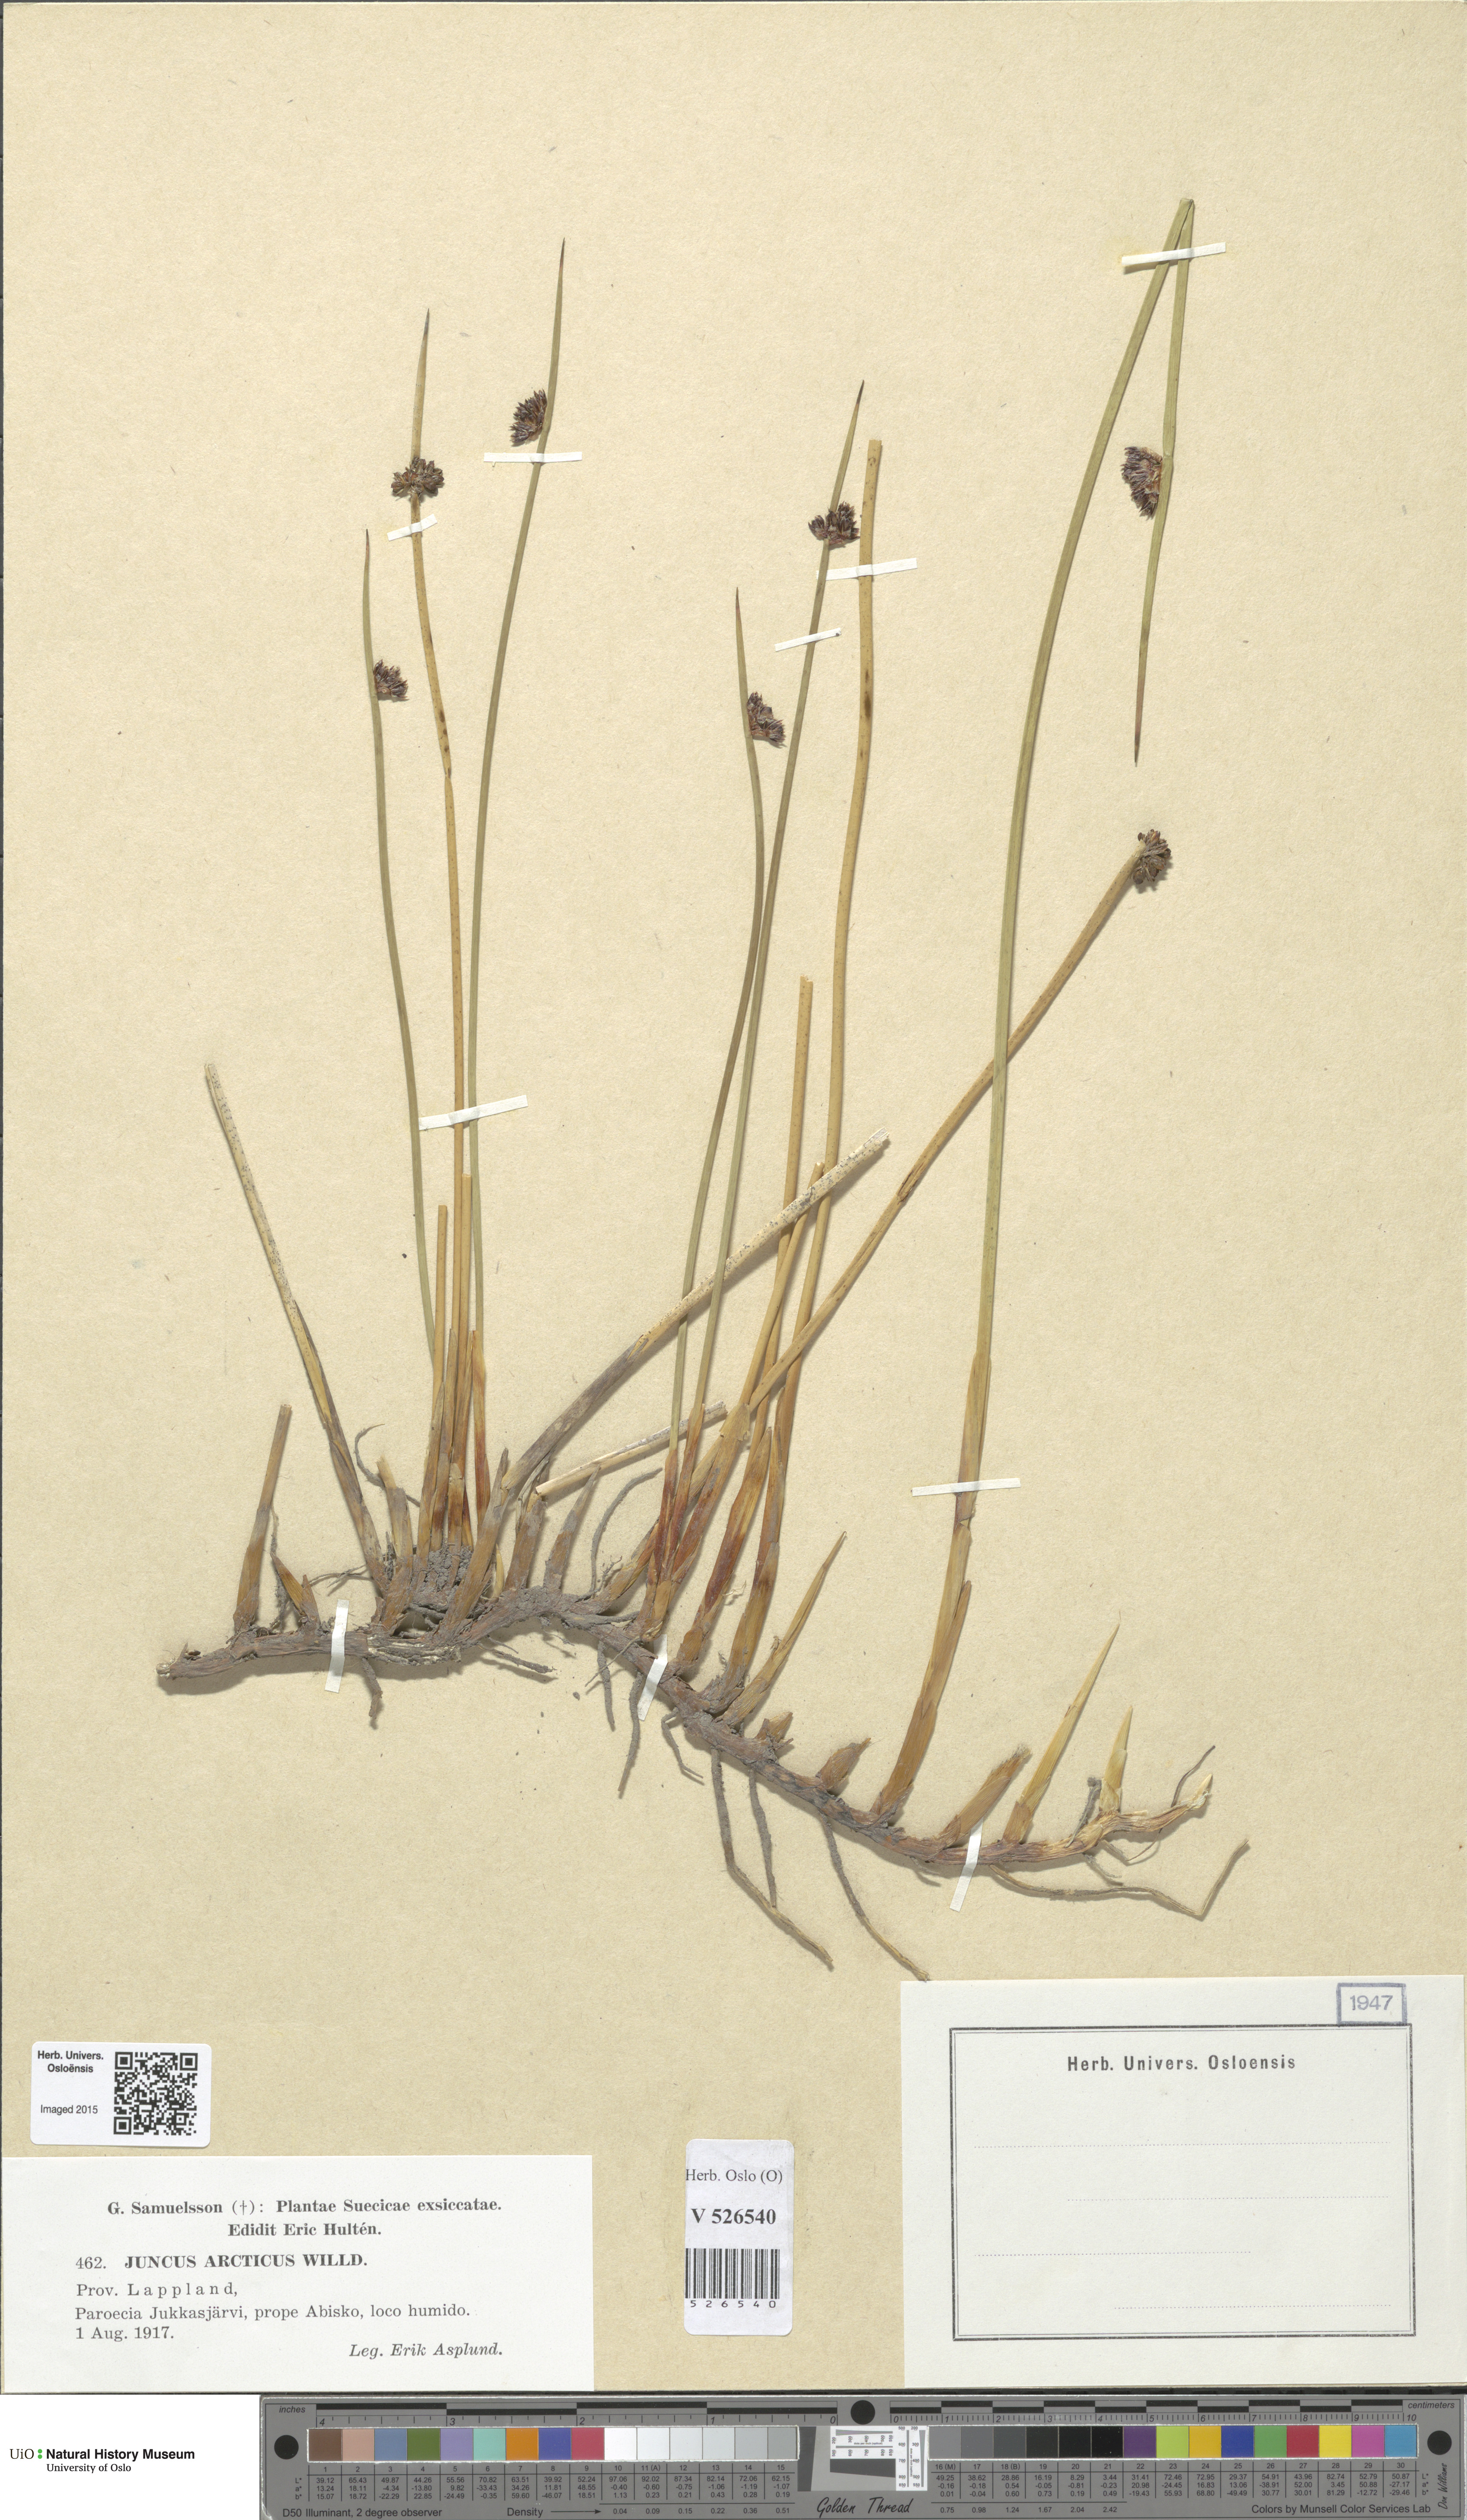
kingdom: Plantae
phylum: Tracheophyta
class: Liliopsida
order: Poales
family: Juncaceae
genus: Juncus
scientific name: Juncus arcticus
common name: Arctic rush
